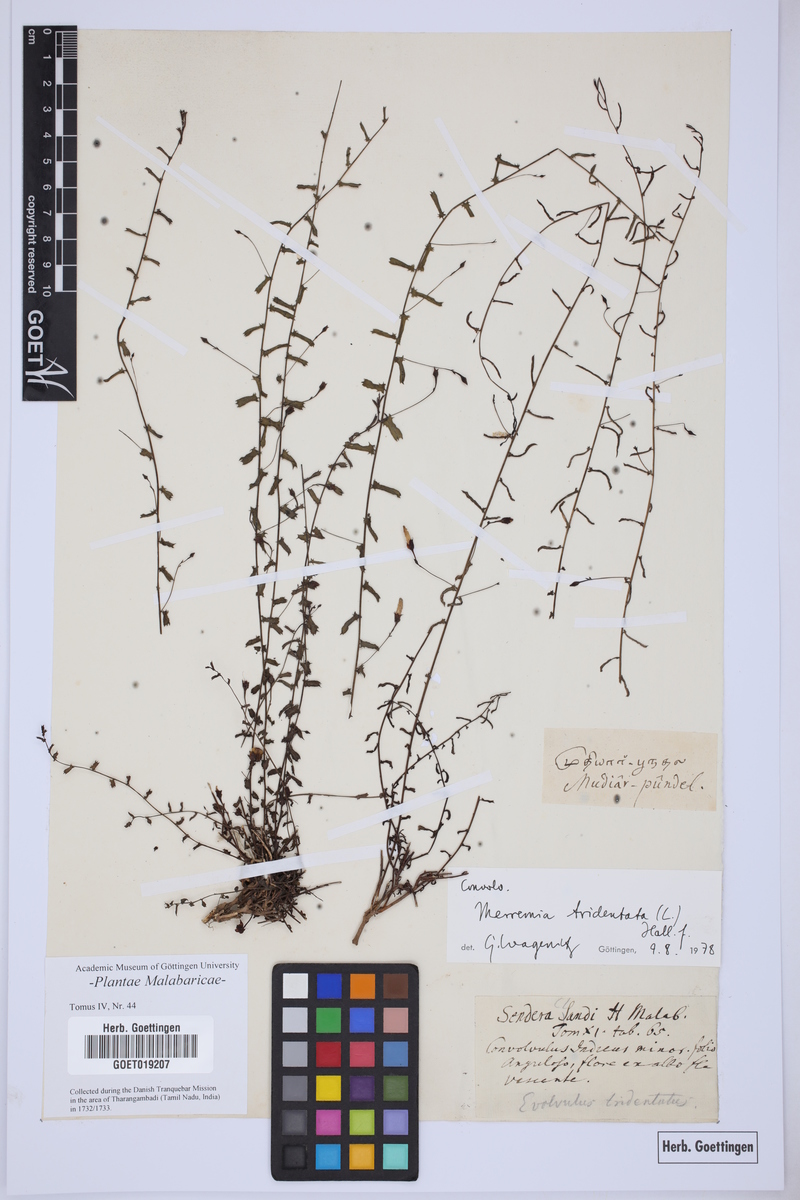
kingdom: Plantae
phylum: Tracheophyta
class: Magnoliopsida
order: Solanales
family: Convolvulaceae
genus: Xenostegia
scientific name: Xenostegia tridentata
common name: African morningvine
